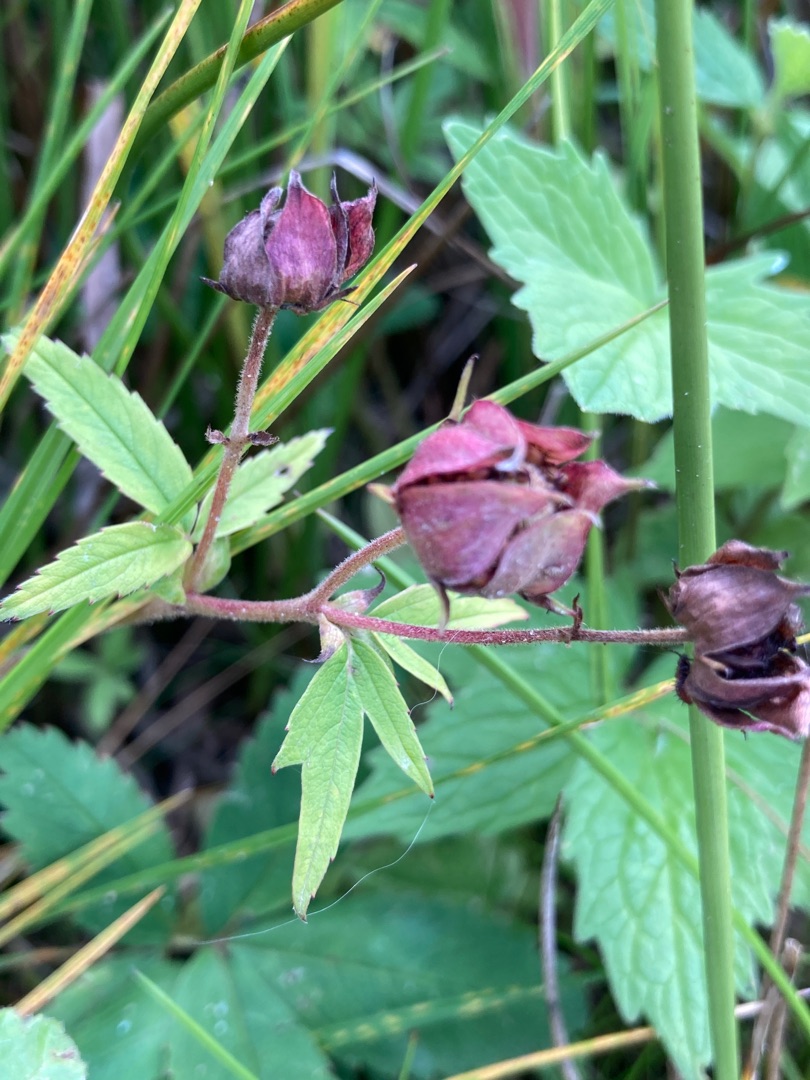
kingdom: Plantae
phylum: Tracheophyta
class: Magnoliopsida
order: Rosales
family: Rosaceae
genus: Comarum
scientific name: Comarum palustre
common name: Kragefod
